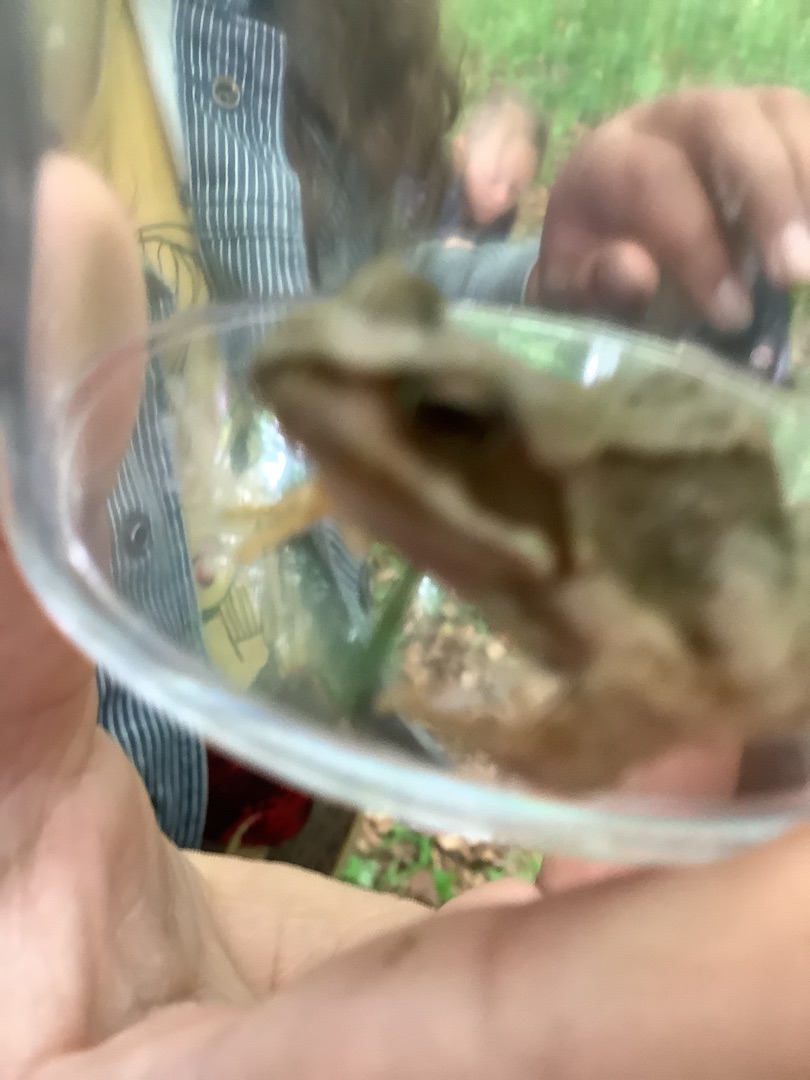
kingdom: Animalia
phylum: Chordata
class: Amphibia
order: Anura
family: Ranidae
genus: Rana
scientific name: Rana temporaria
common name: Butsnudet frø
